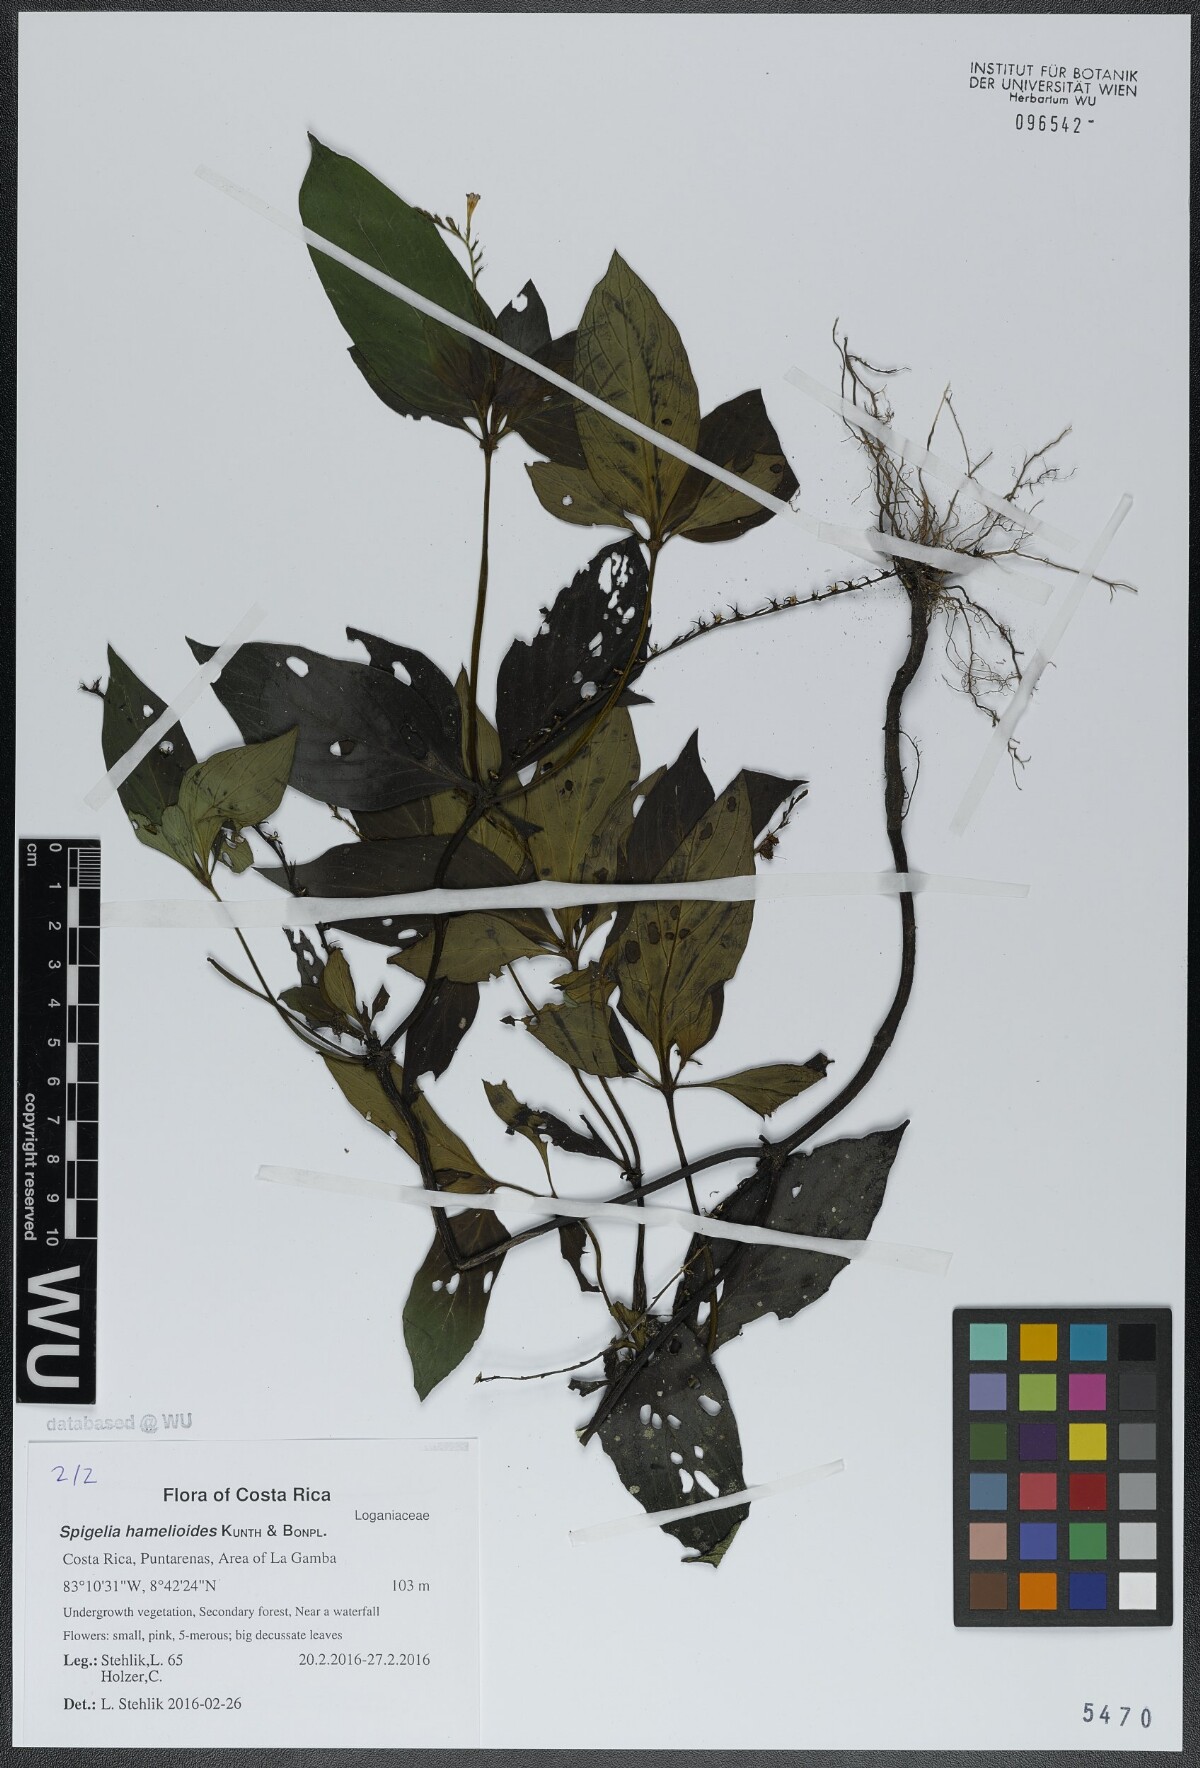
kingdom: Plantae
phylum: Tracheophyta
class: Magnoliopsida
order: Gentianales
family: Loganiaceae
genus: Spigelia
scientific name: Spigelia hamellioides
